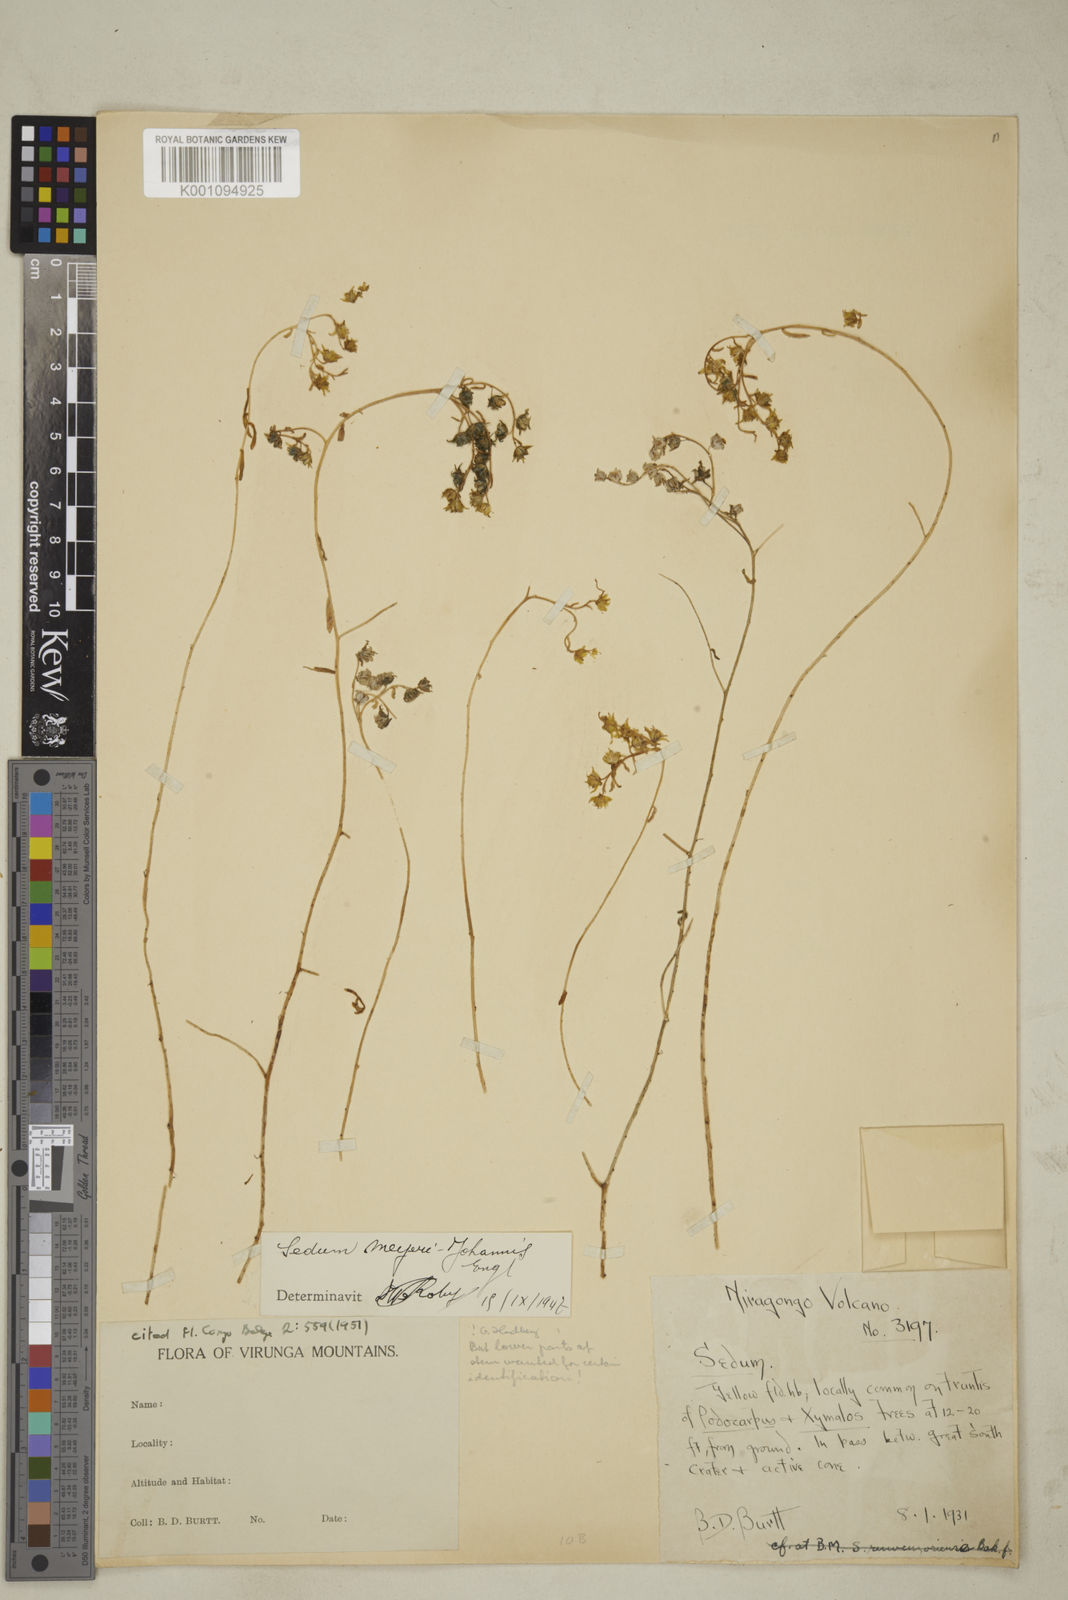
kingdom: Plantae
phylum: Tracheophyta
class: Magnoliopsida
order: Saxifragales
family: Crassulaceae
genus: Sedum
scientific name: Sedum meyeri-johannis
